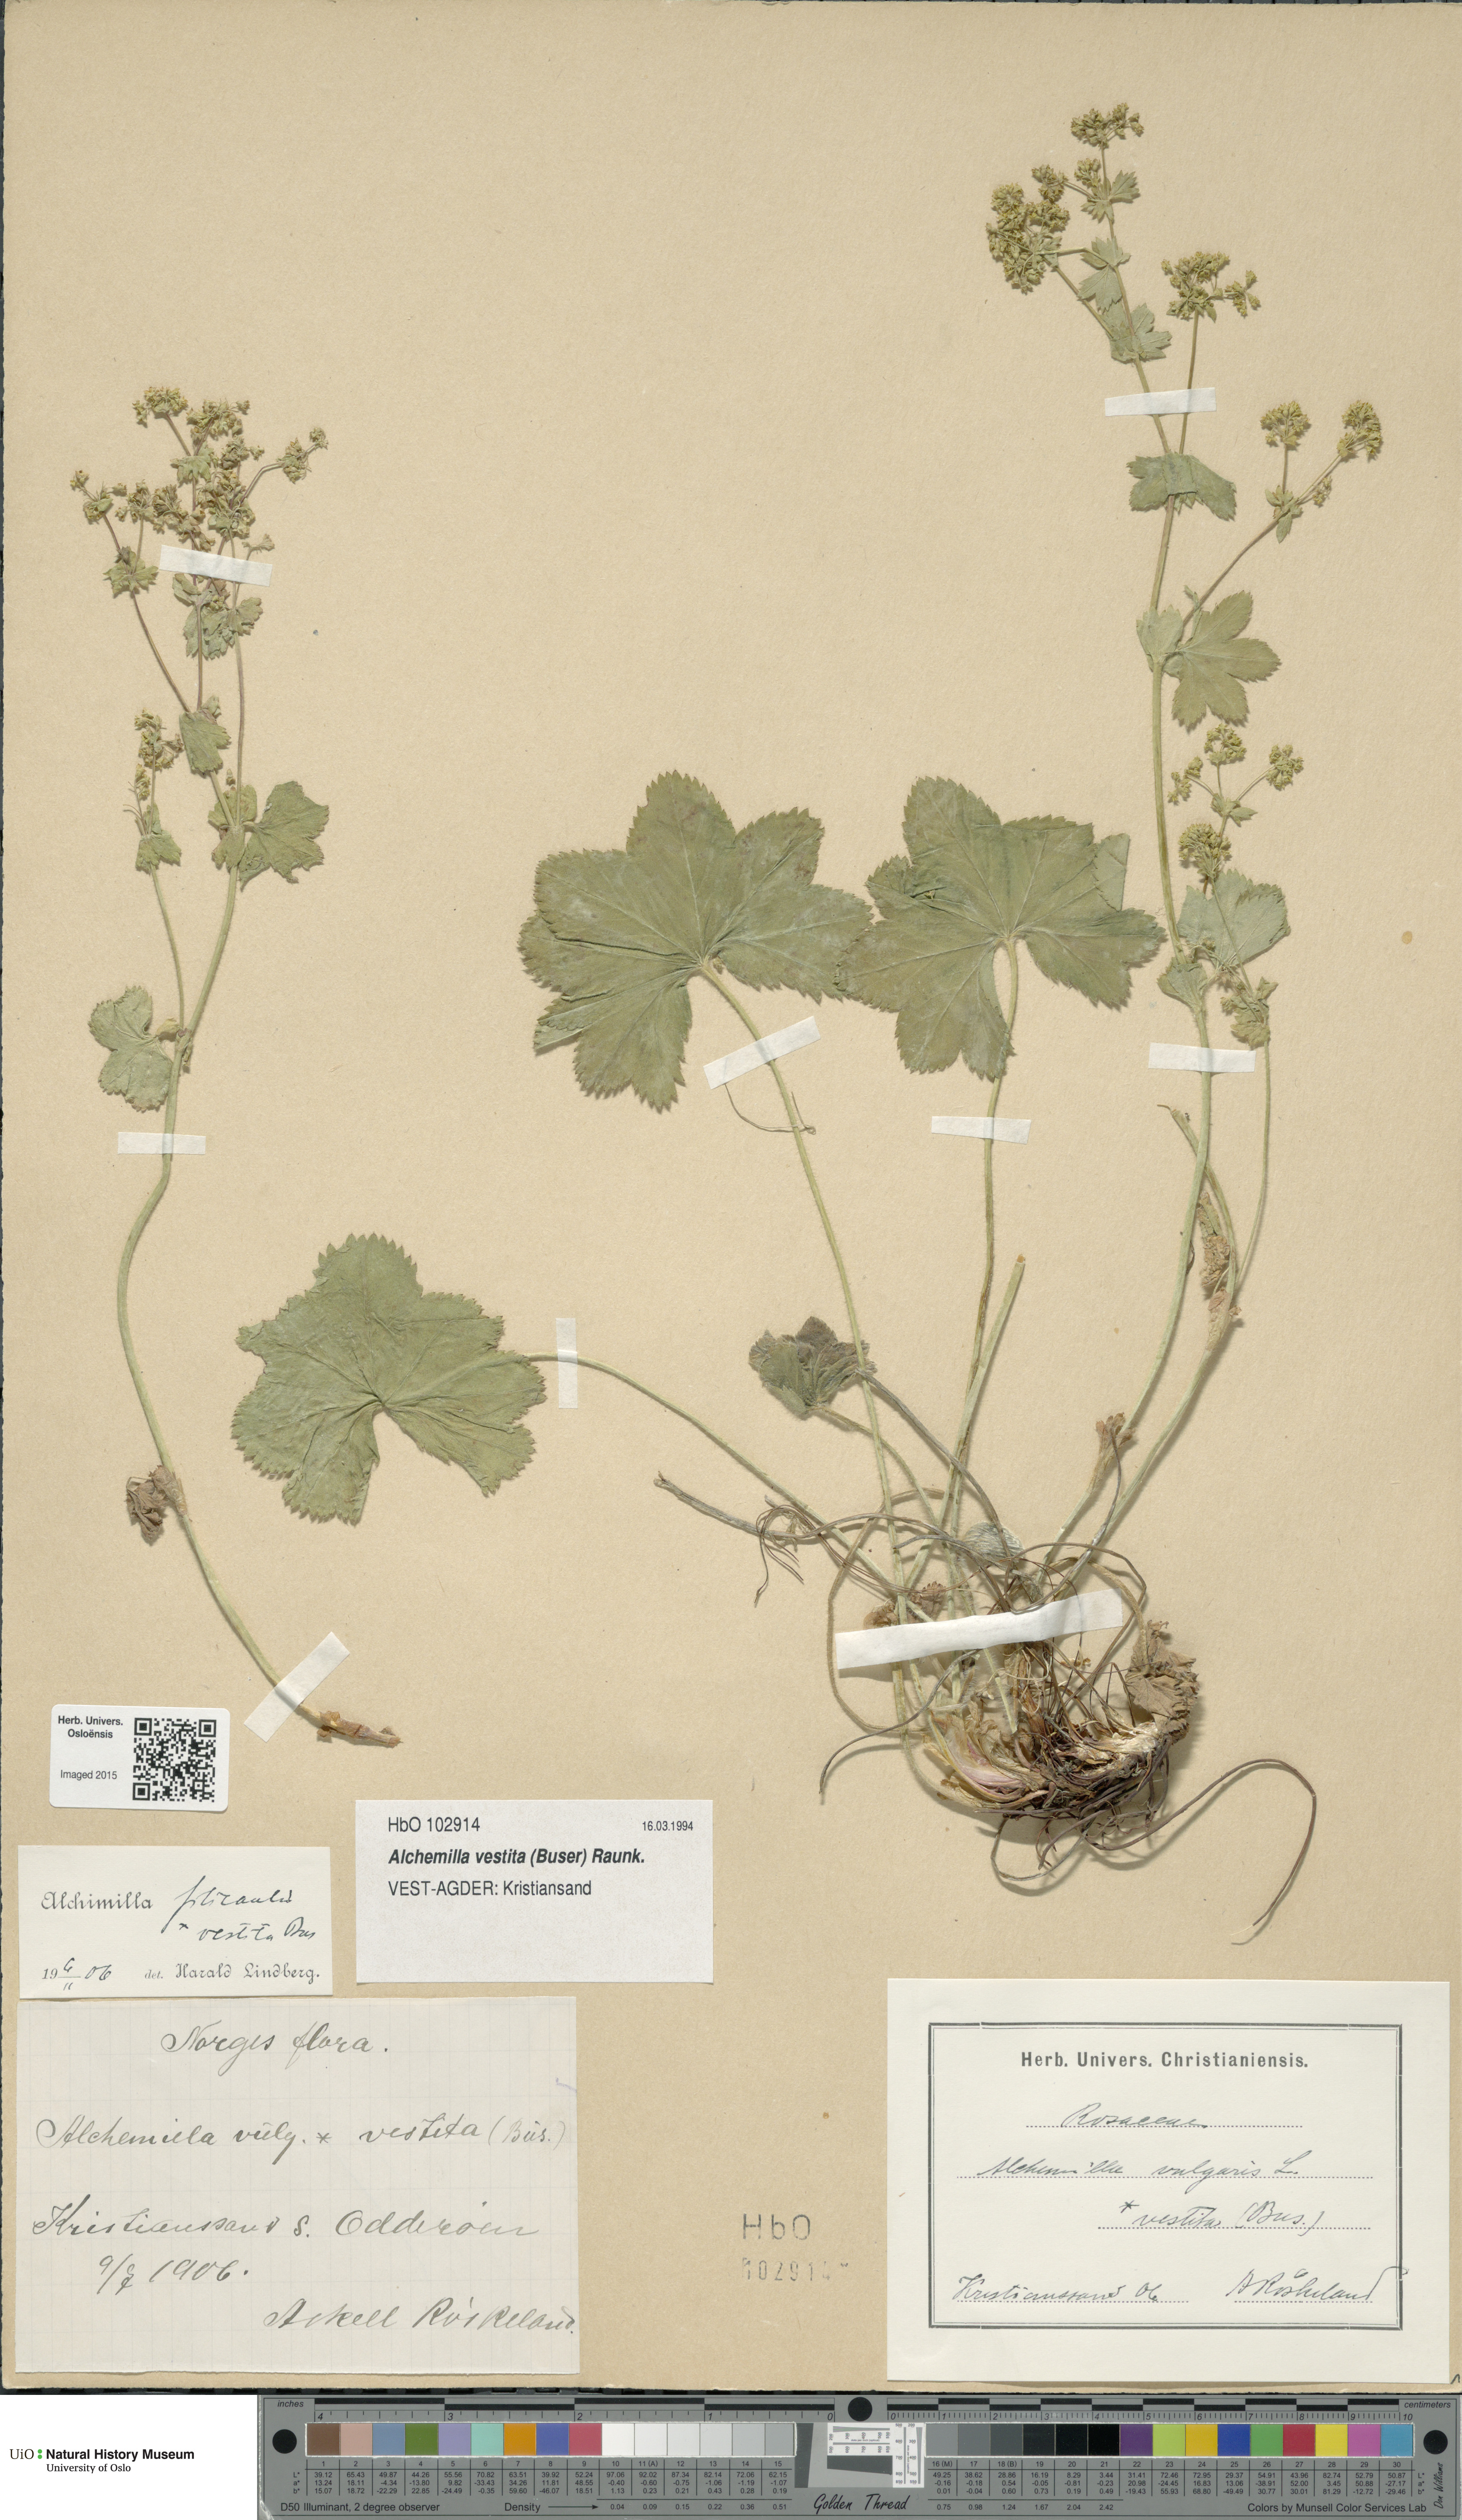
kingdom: Plantae
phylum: Tracheophyta
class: Magnoliopsida
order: Rosales
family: Rosaceae
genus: Alchemilla
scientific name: Alchemilla filicaulis
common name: Hairy lady's-mantle
